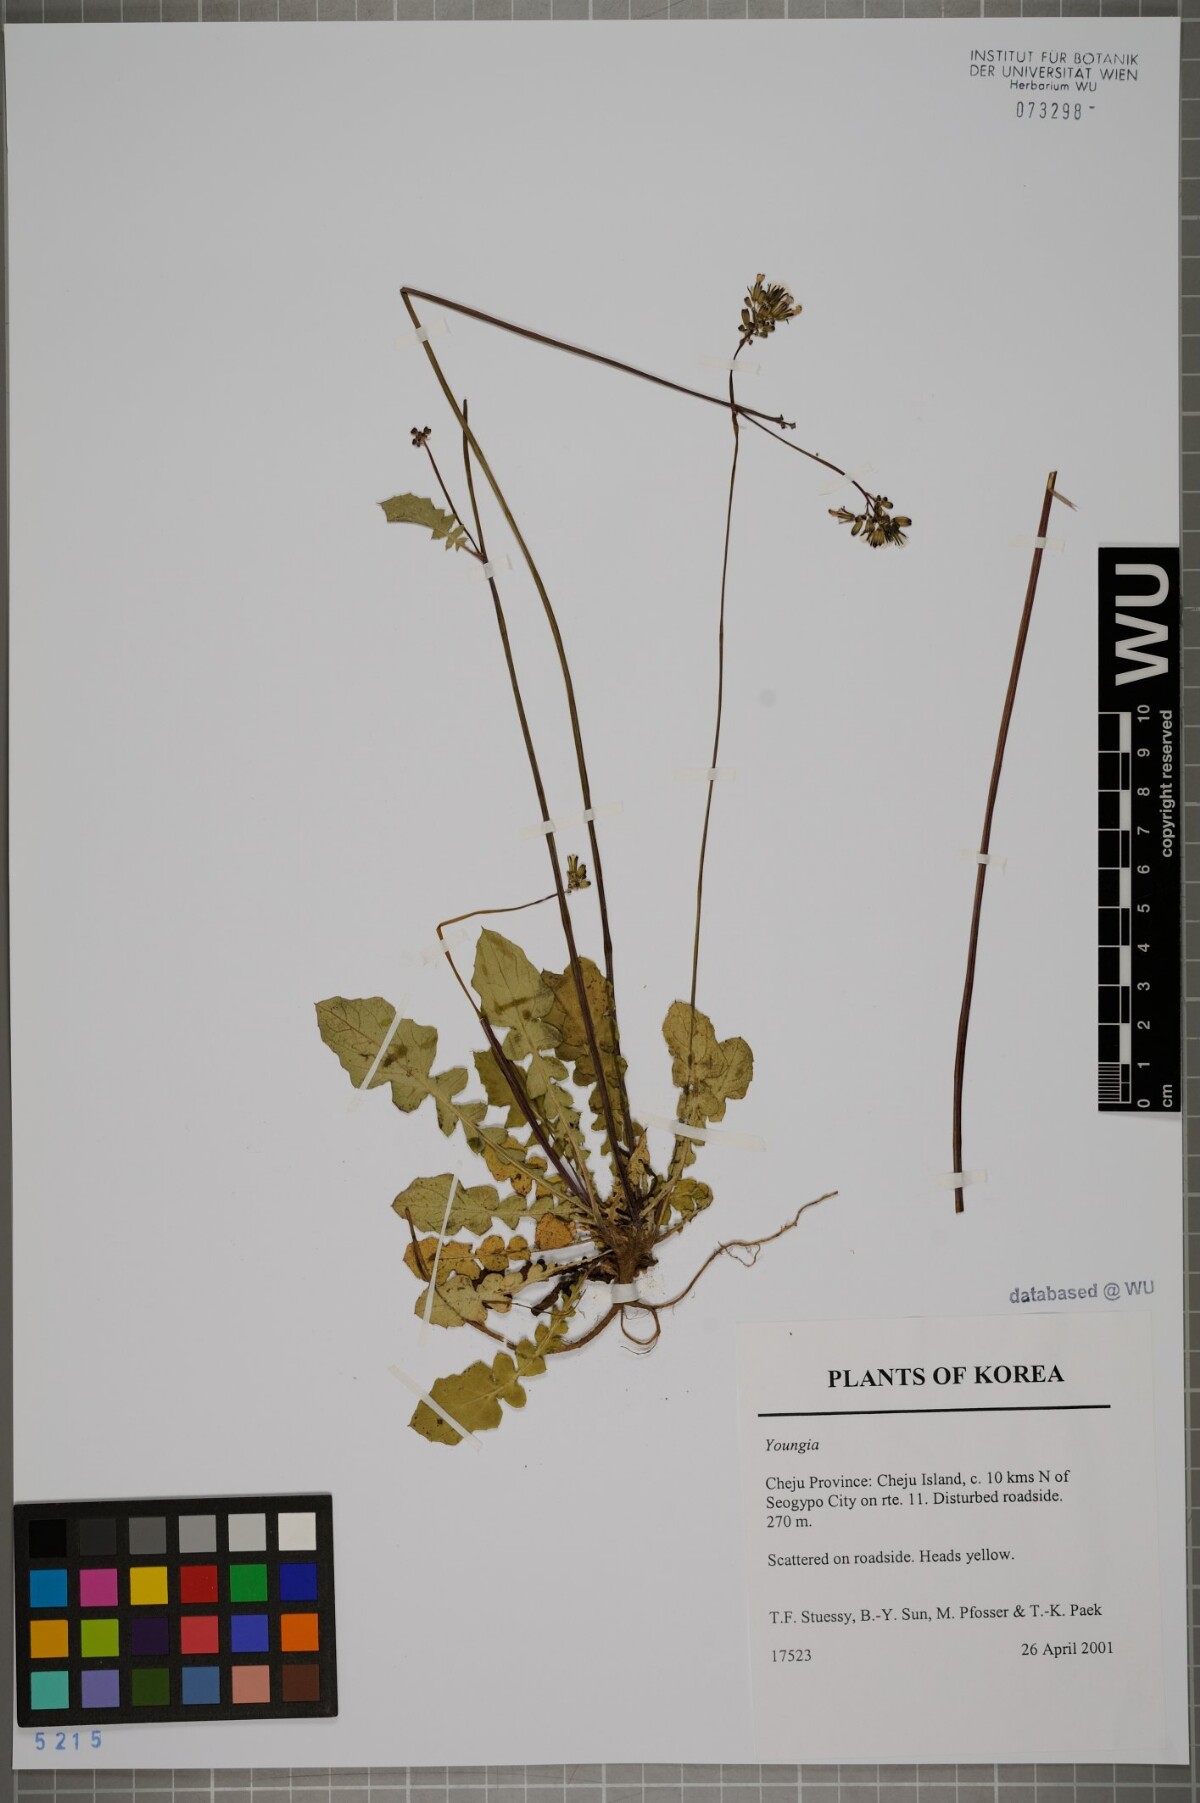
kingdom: Plantae
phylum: Tracheophyta
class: Magnoliopsida
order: Asterales
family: Asteraceae
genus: Youngia
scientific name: Youngia
